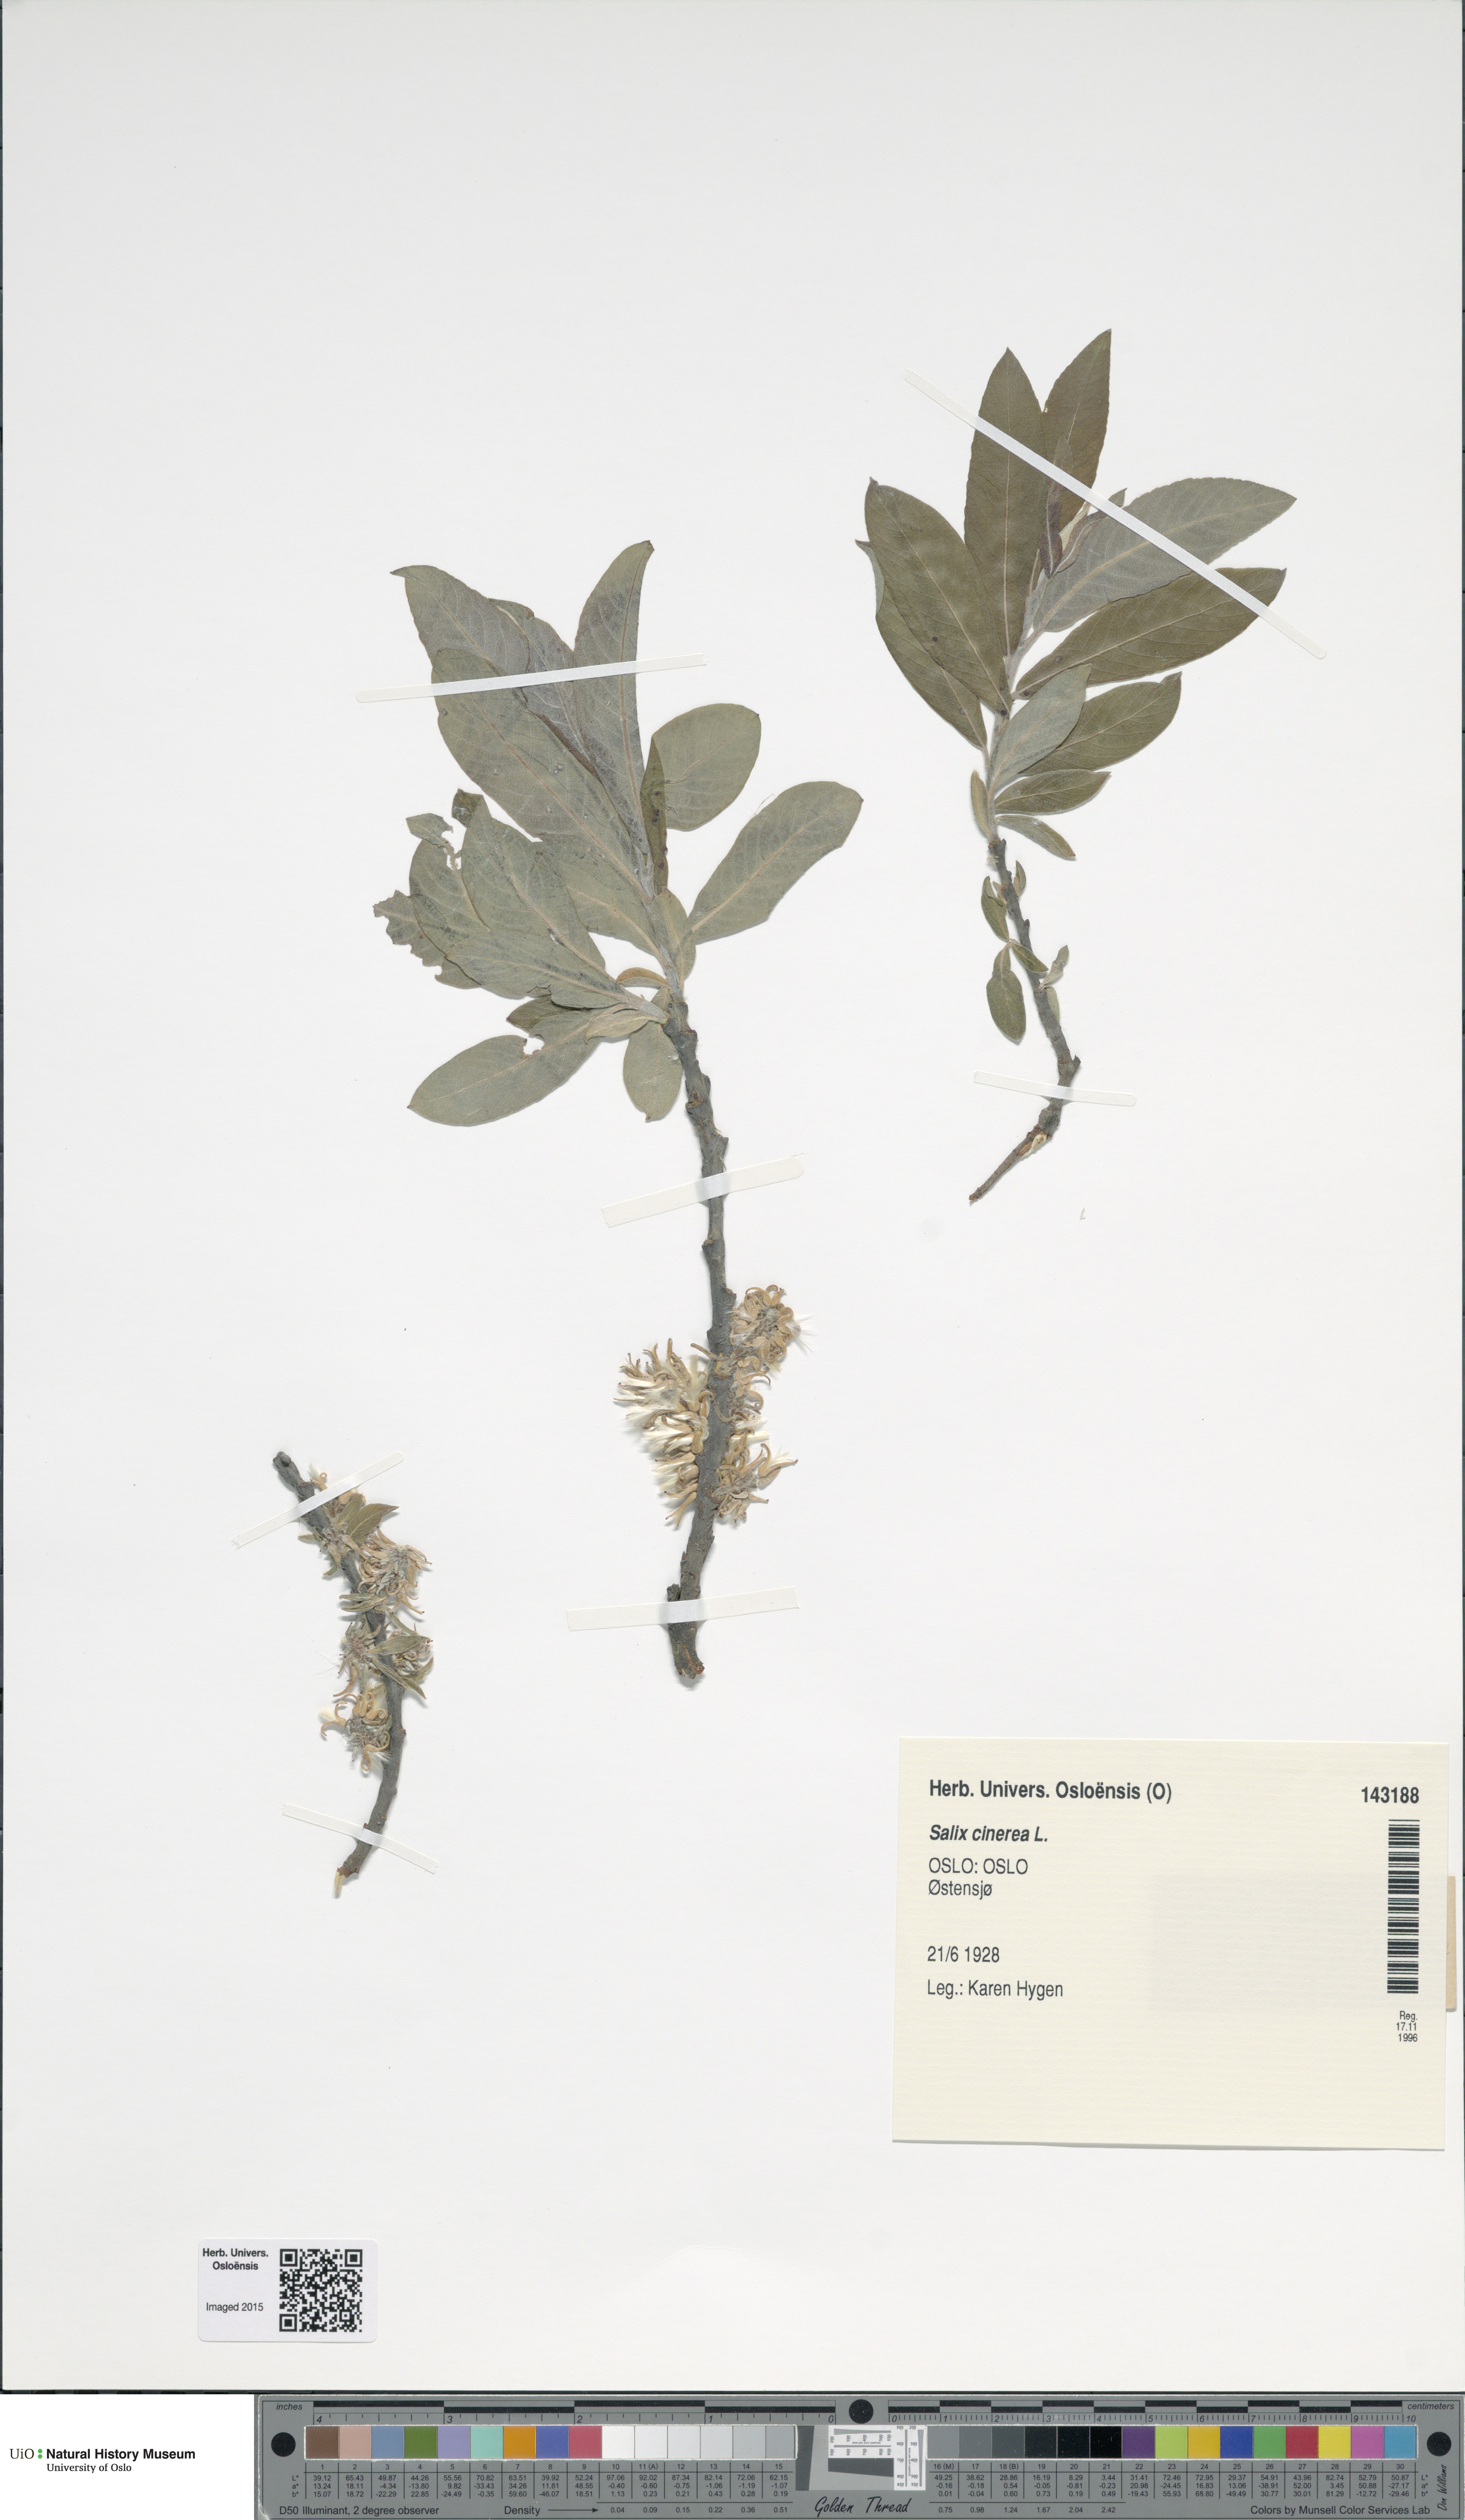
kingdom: Plantae
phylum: Tracheophyta
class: Magnoliopsida
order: Malpighiales
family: Salicaceae
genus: Salix
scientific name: Salix cinerea
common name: Common sallow
